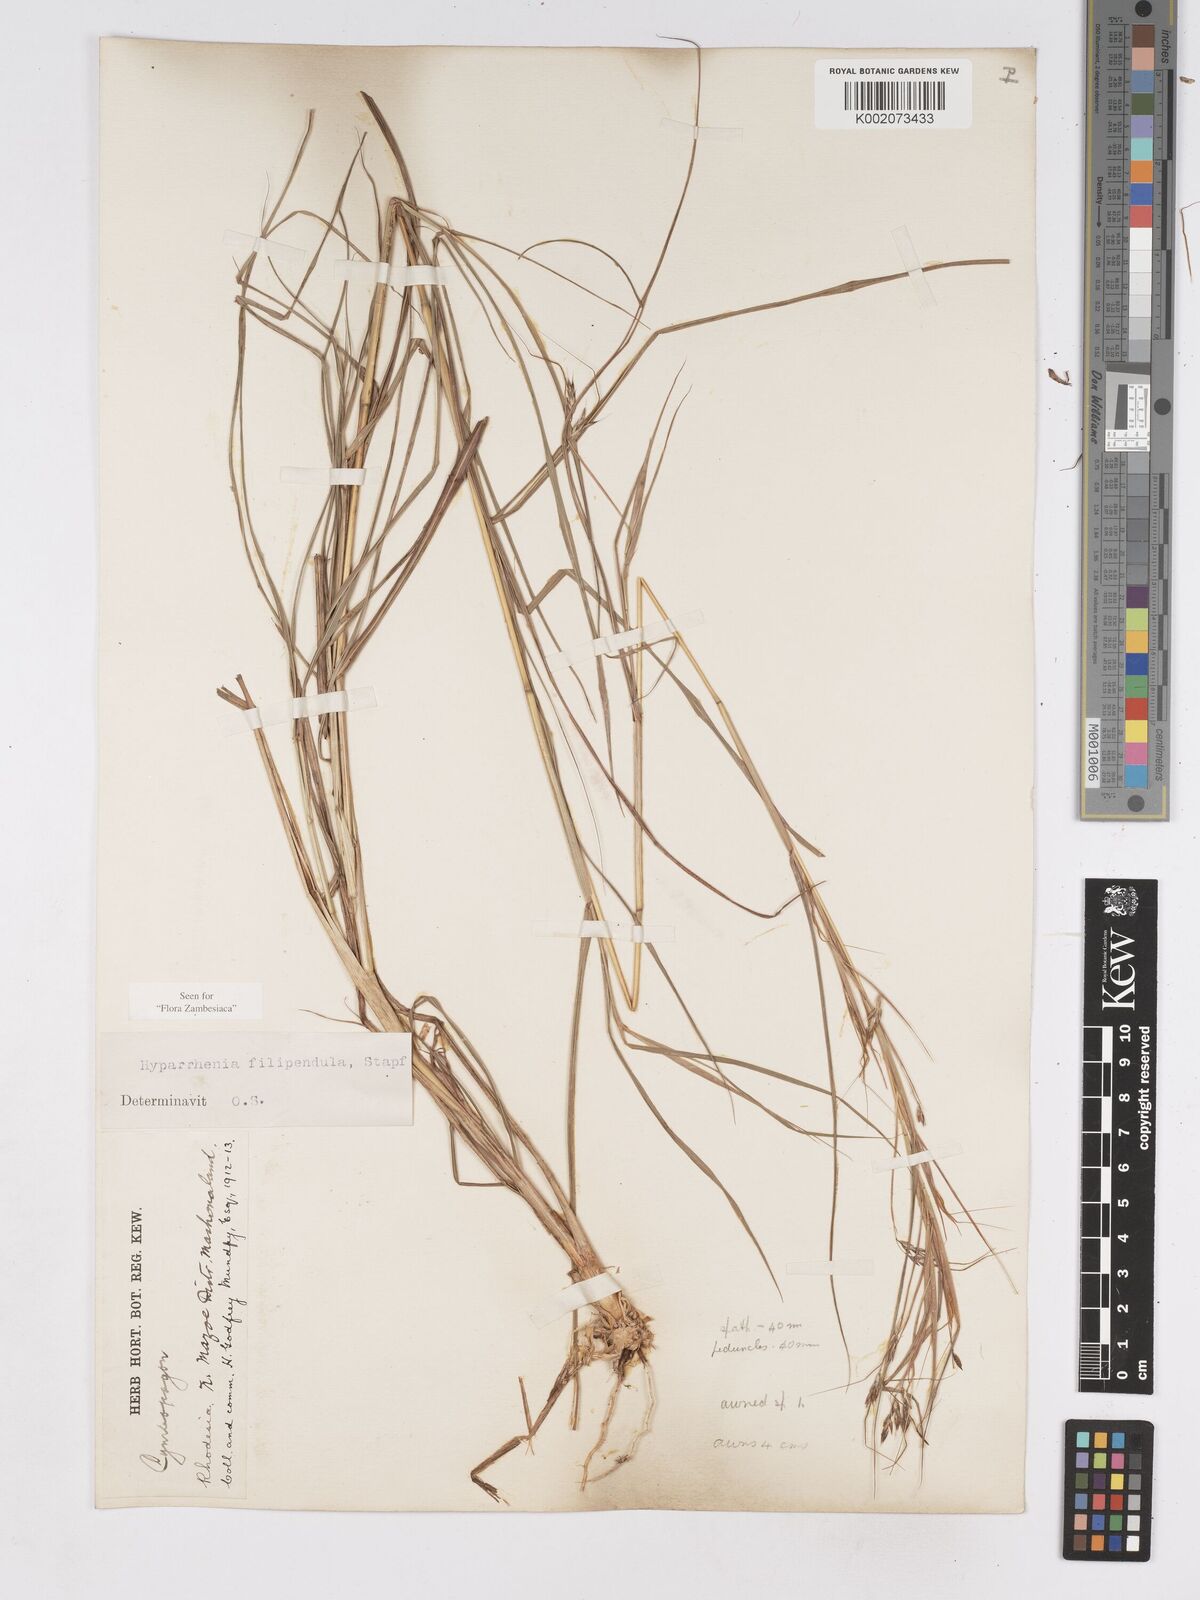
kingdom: Plantae
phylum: Tracheophyta
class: Liliopsida
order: Poales
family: Poaceae
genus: Hyparrhenia
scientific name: Hyparrhenia filipendula
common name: Tambookie grass
